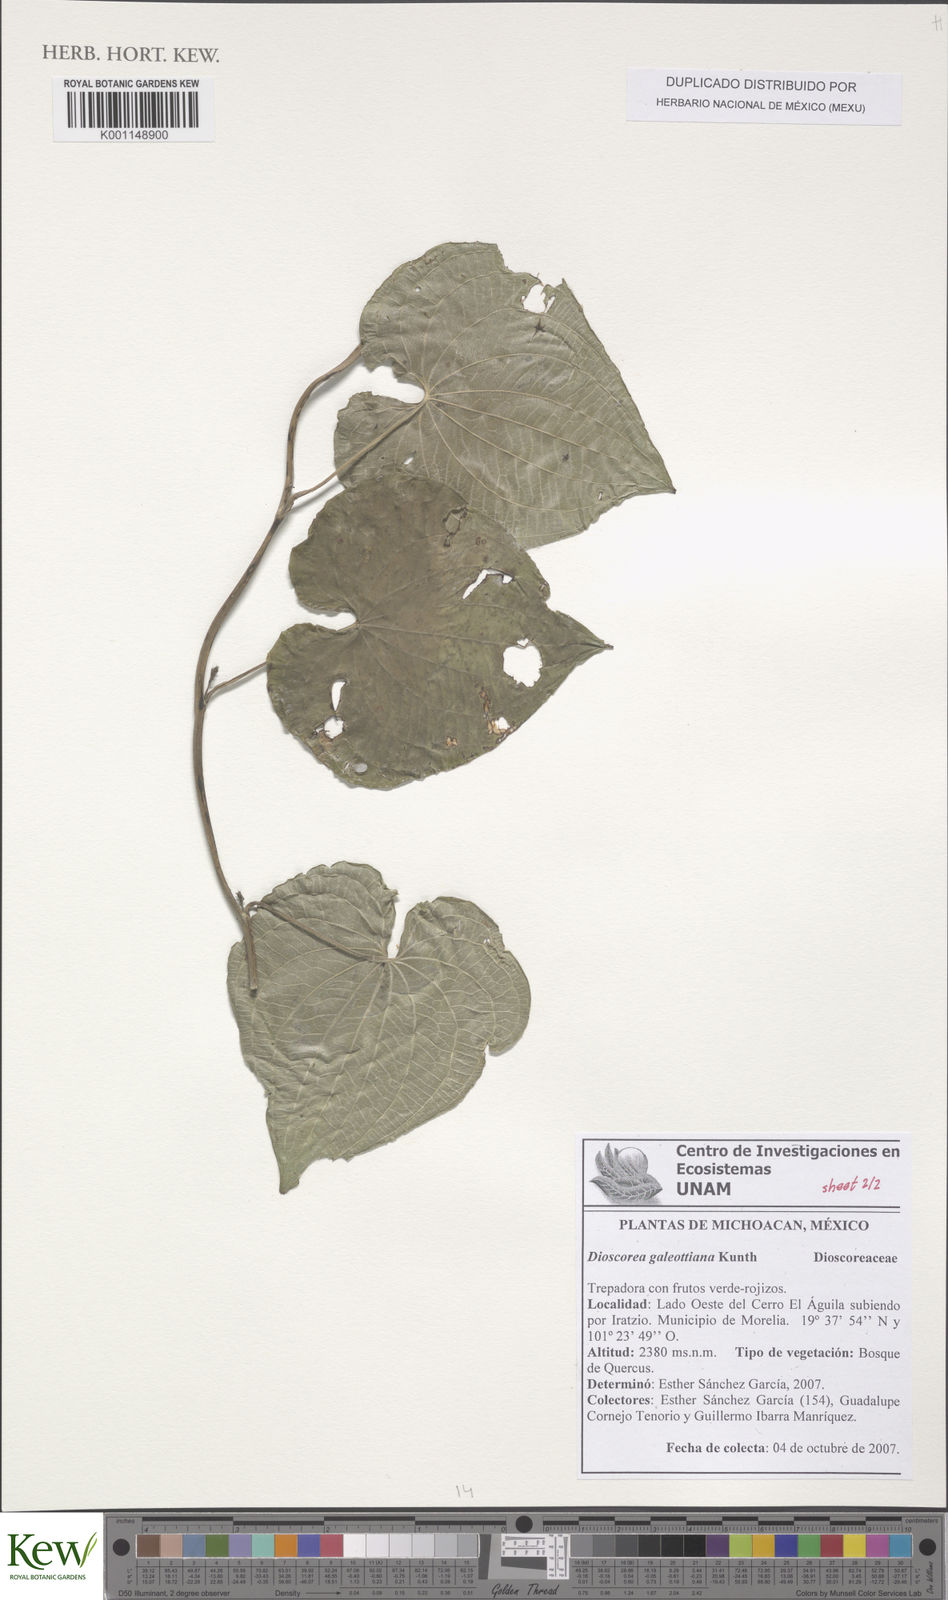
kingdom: Plantae
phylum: Tracheophyta
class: Liliopsida
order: Dioscoreales
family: Dioscoreaceae
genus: Dioscorea
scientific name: Dioscorea galeottiana
